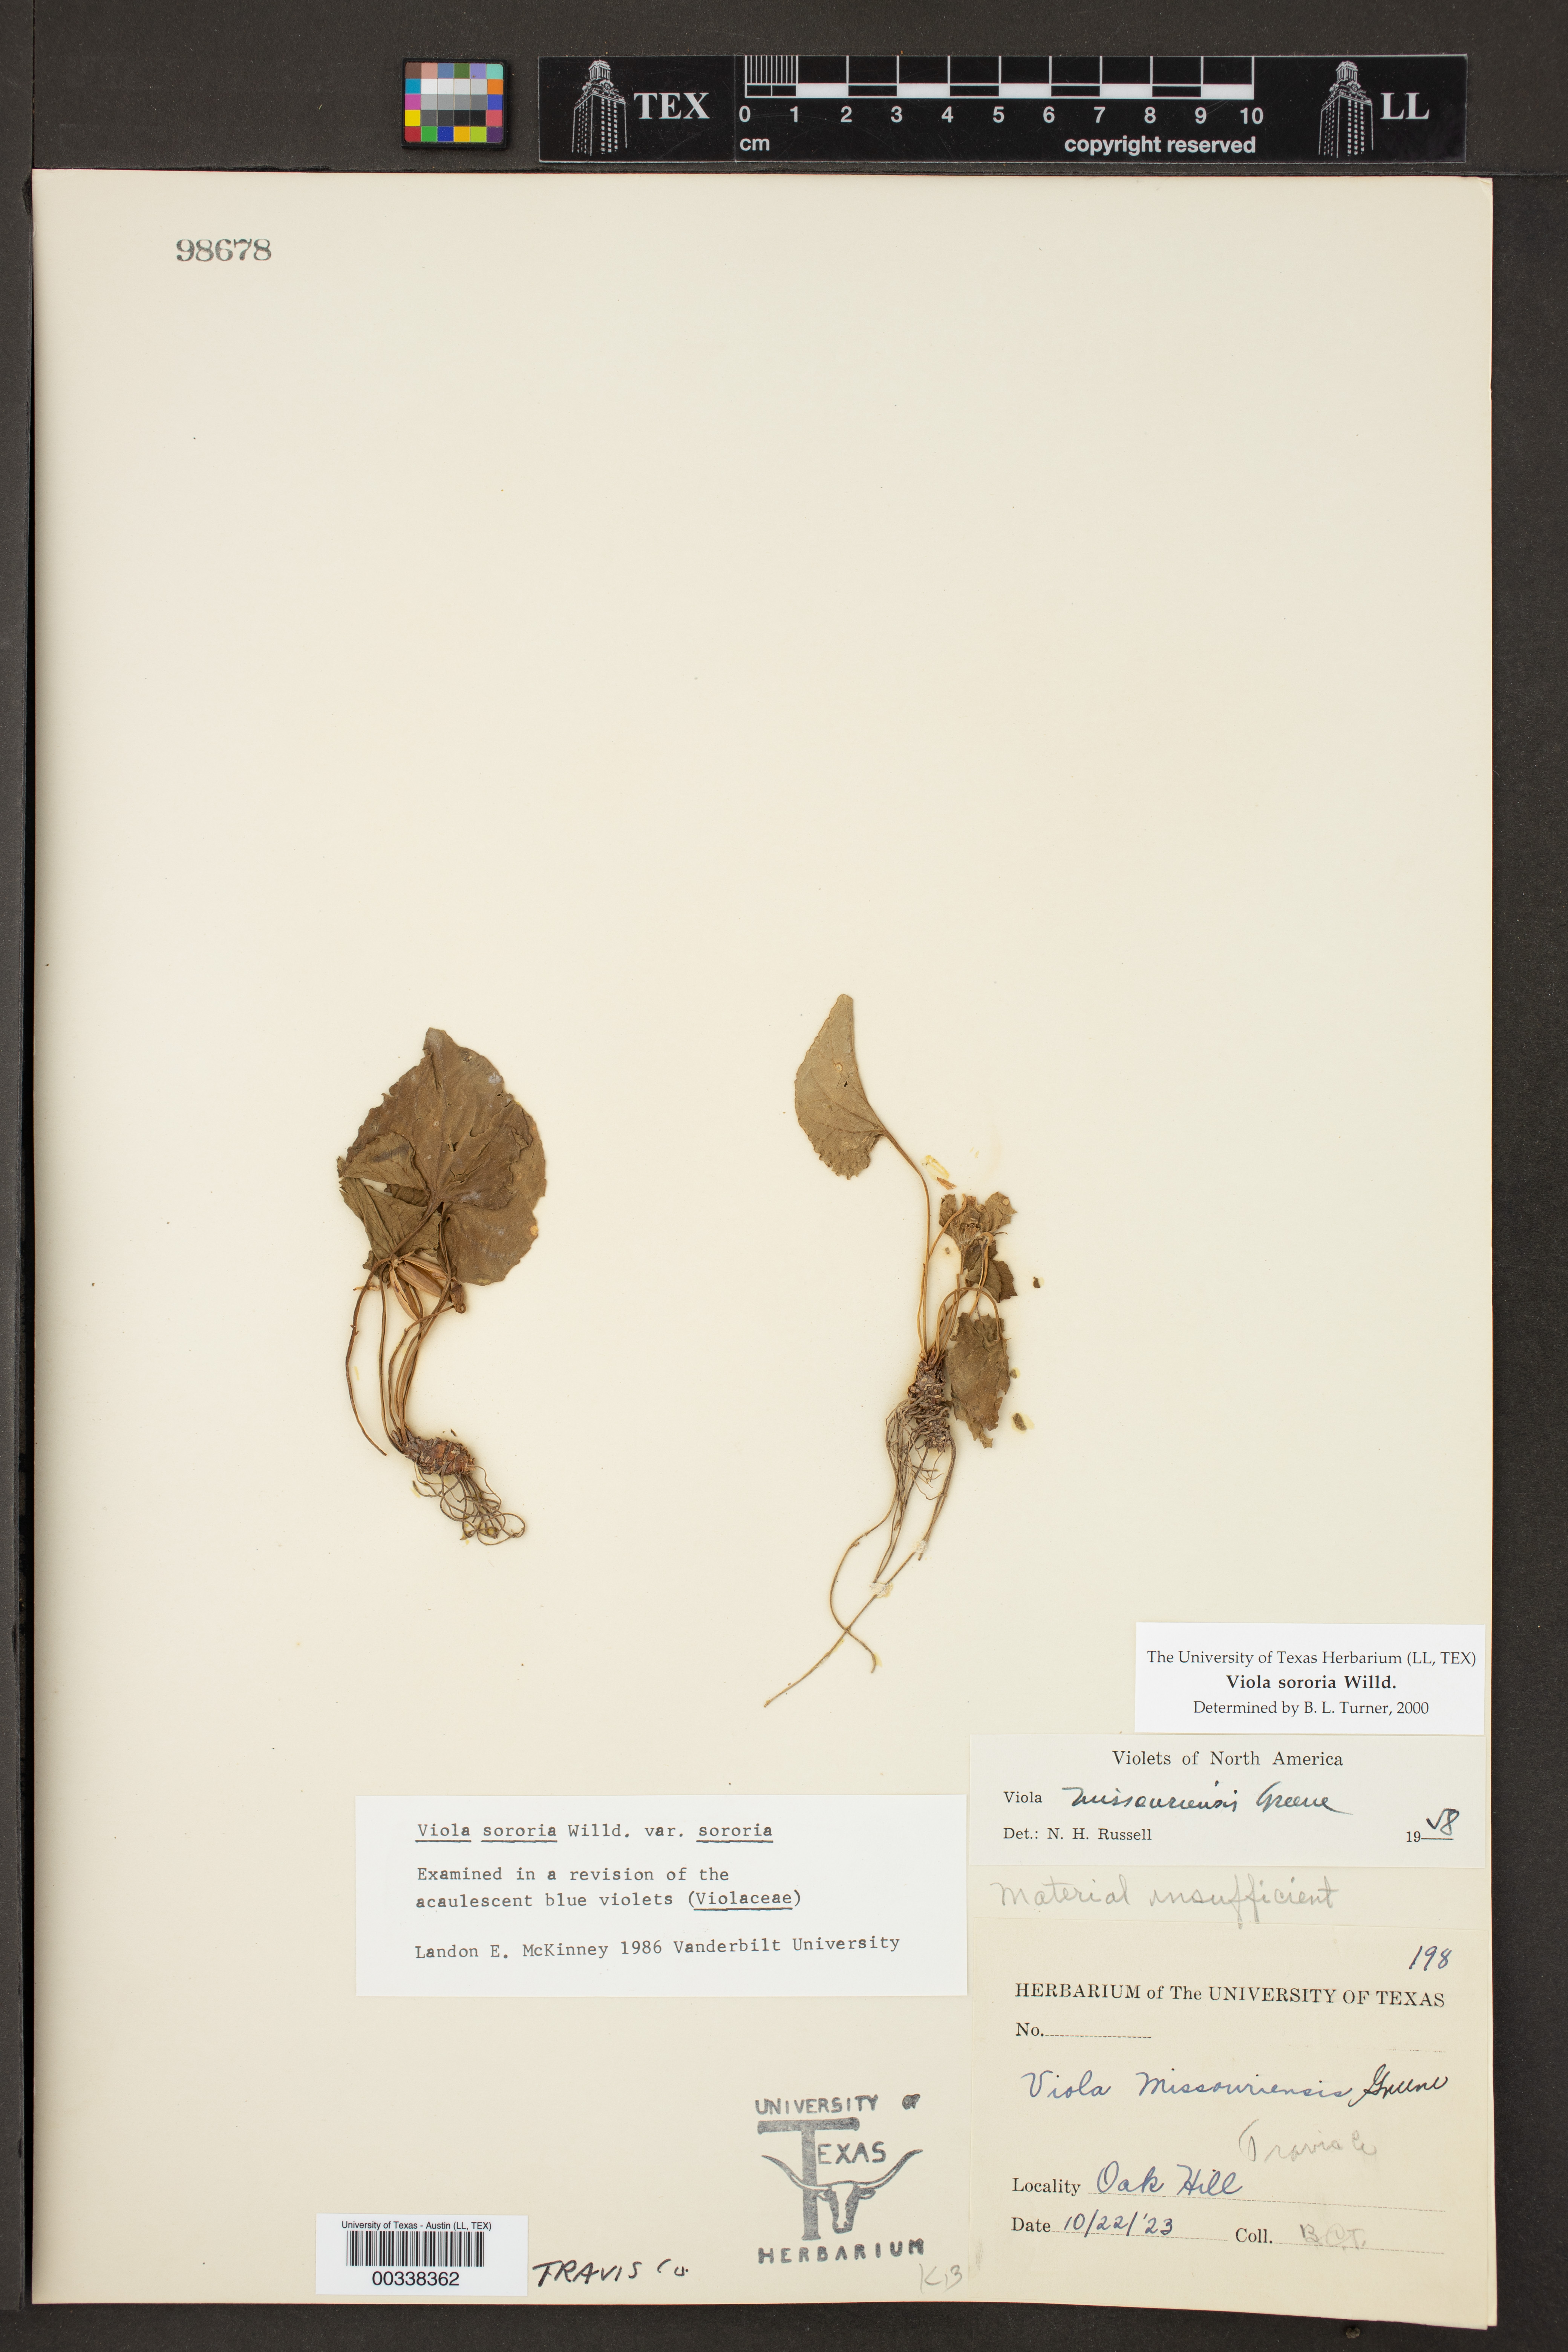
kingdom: Plantae
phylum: Tracheophyta
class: Magnoliopsida
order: Malpighiales
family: Violaceae
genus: Viola
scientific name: Viola sororia
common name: Dooryard violet
